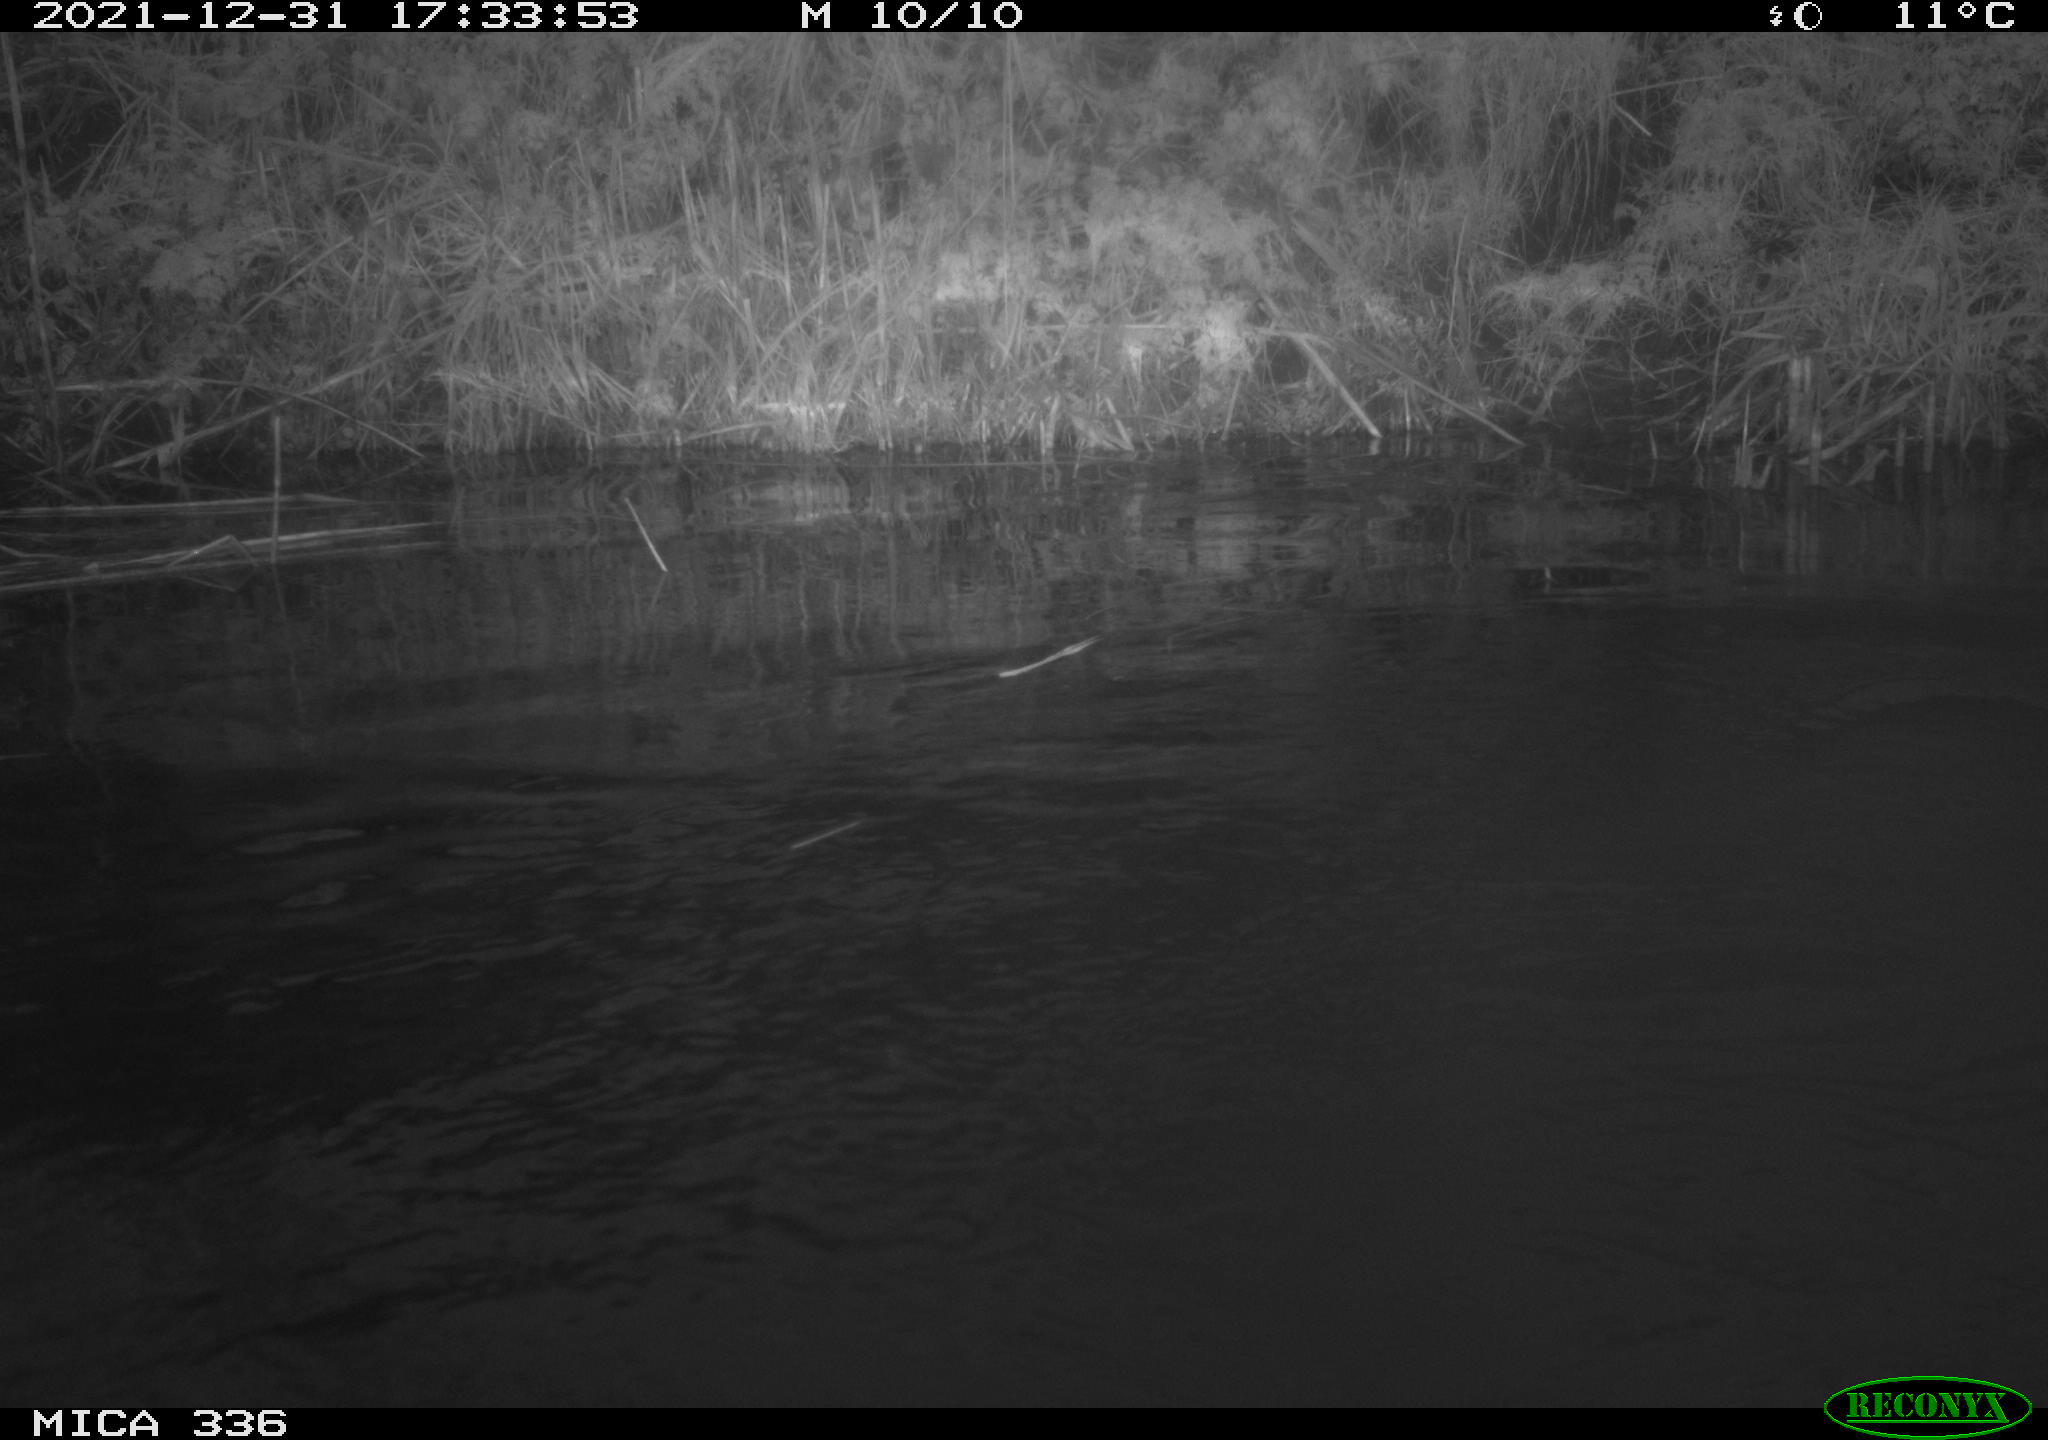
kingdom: Animalia
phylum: Chordata
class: Aves
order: Suliformes
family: Phalacrocoracidae
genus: Phalacrocorax
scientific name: Phalacrocorax carbo
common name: Great cormorant
